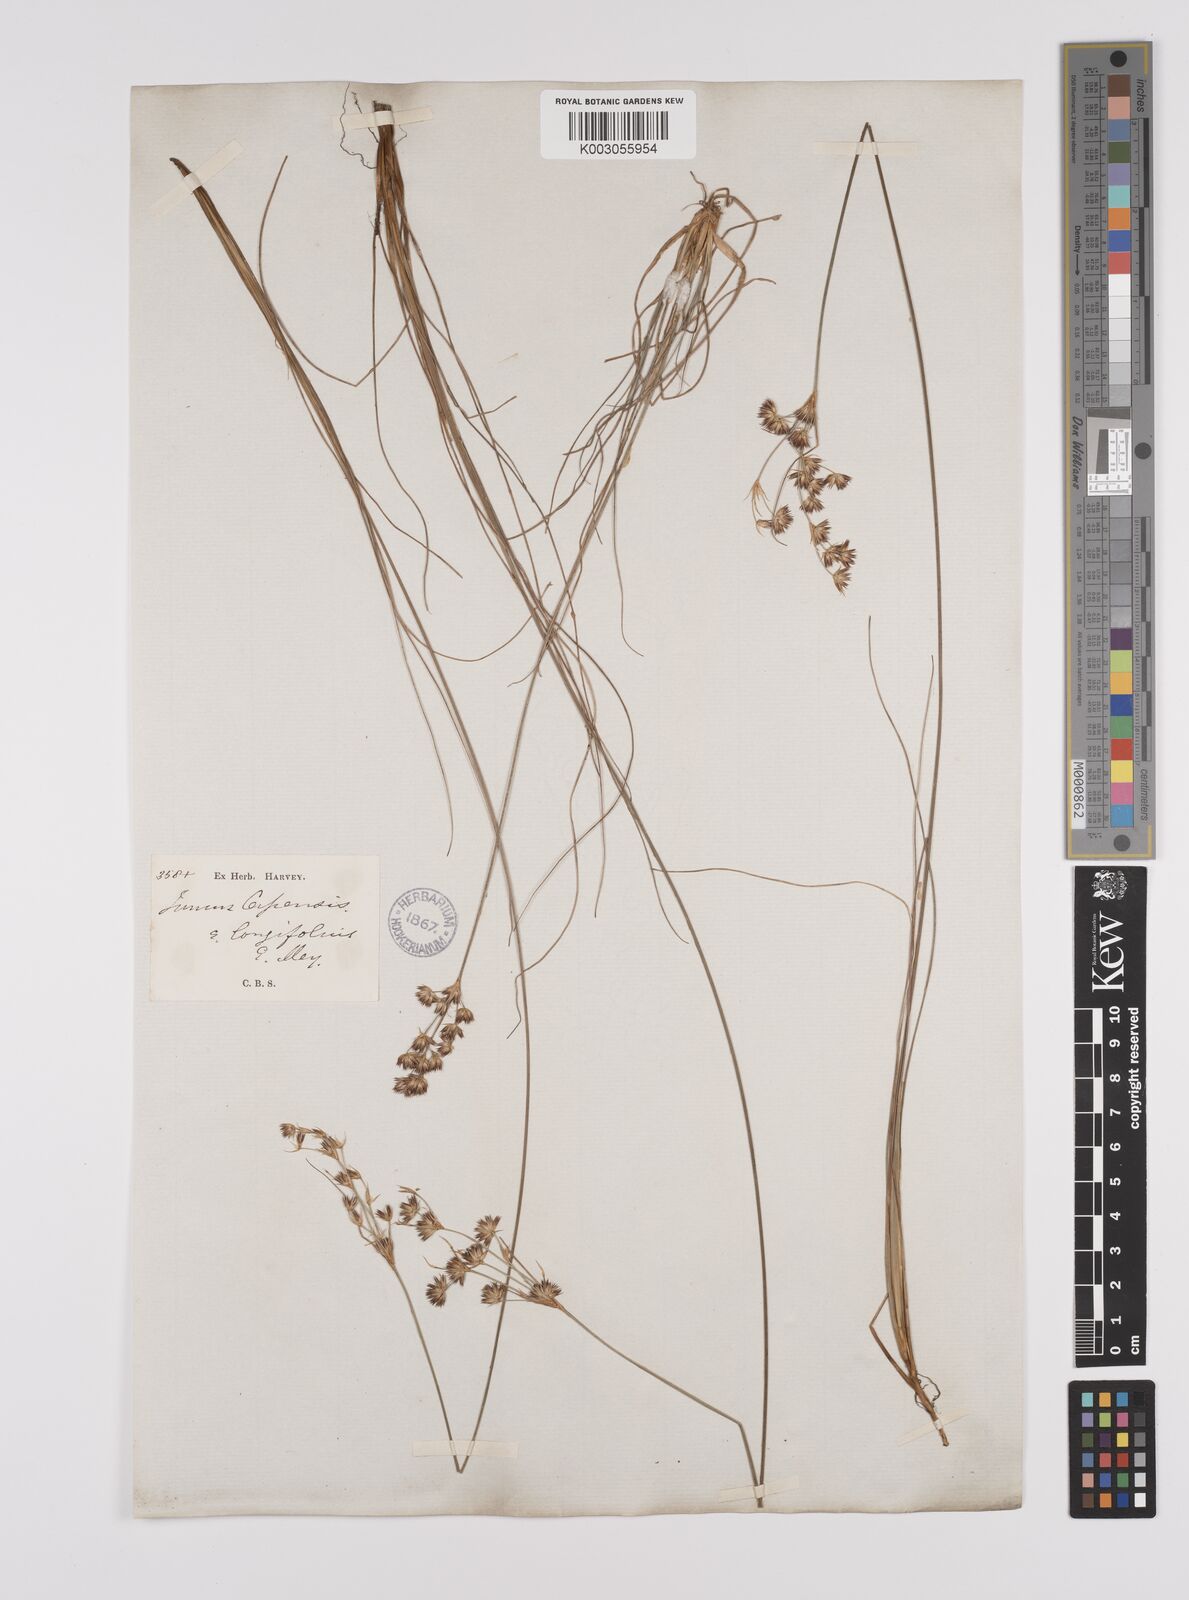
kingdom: Plantae
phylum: Tracheophyta
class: Liliopsida
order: Poales
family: Juncaceae
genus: Juncus
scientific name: Juncus capensis
